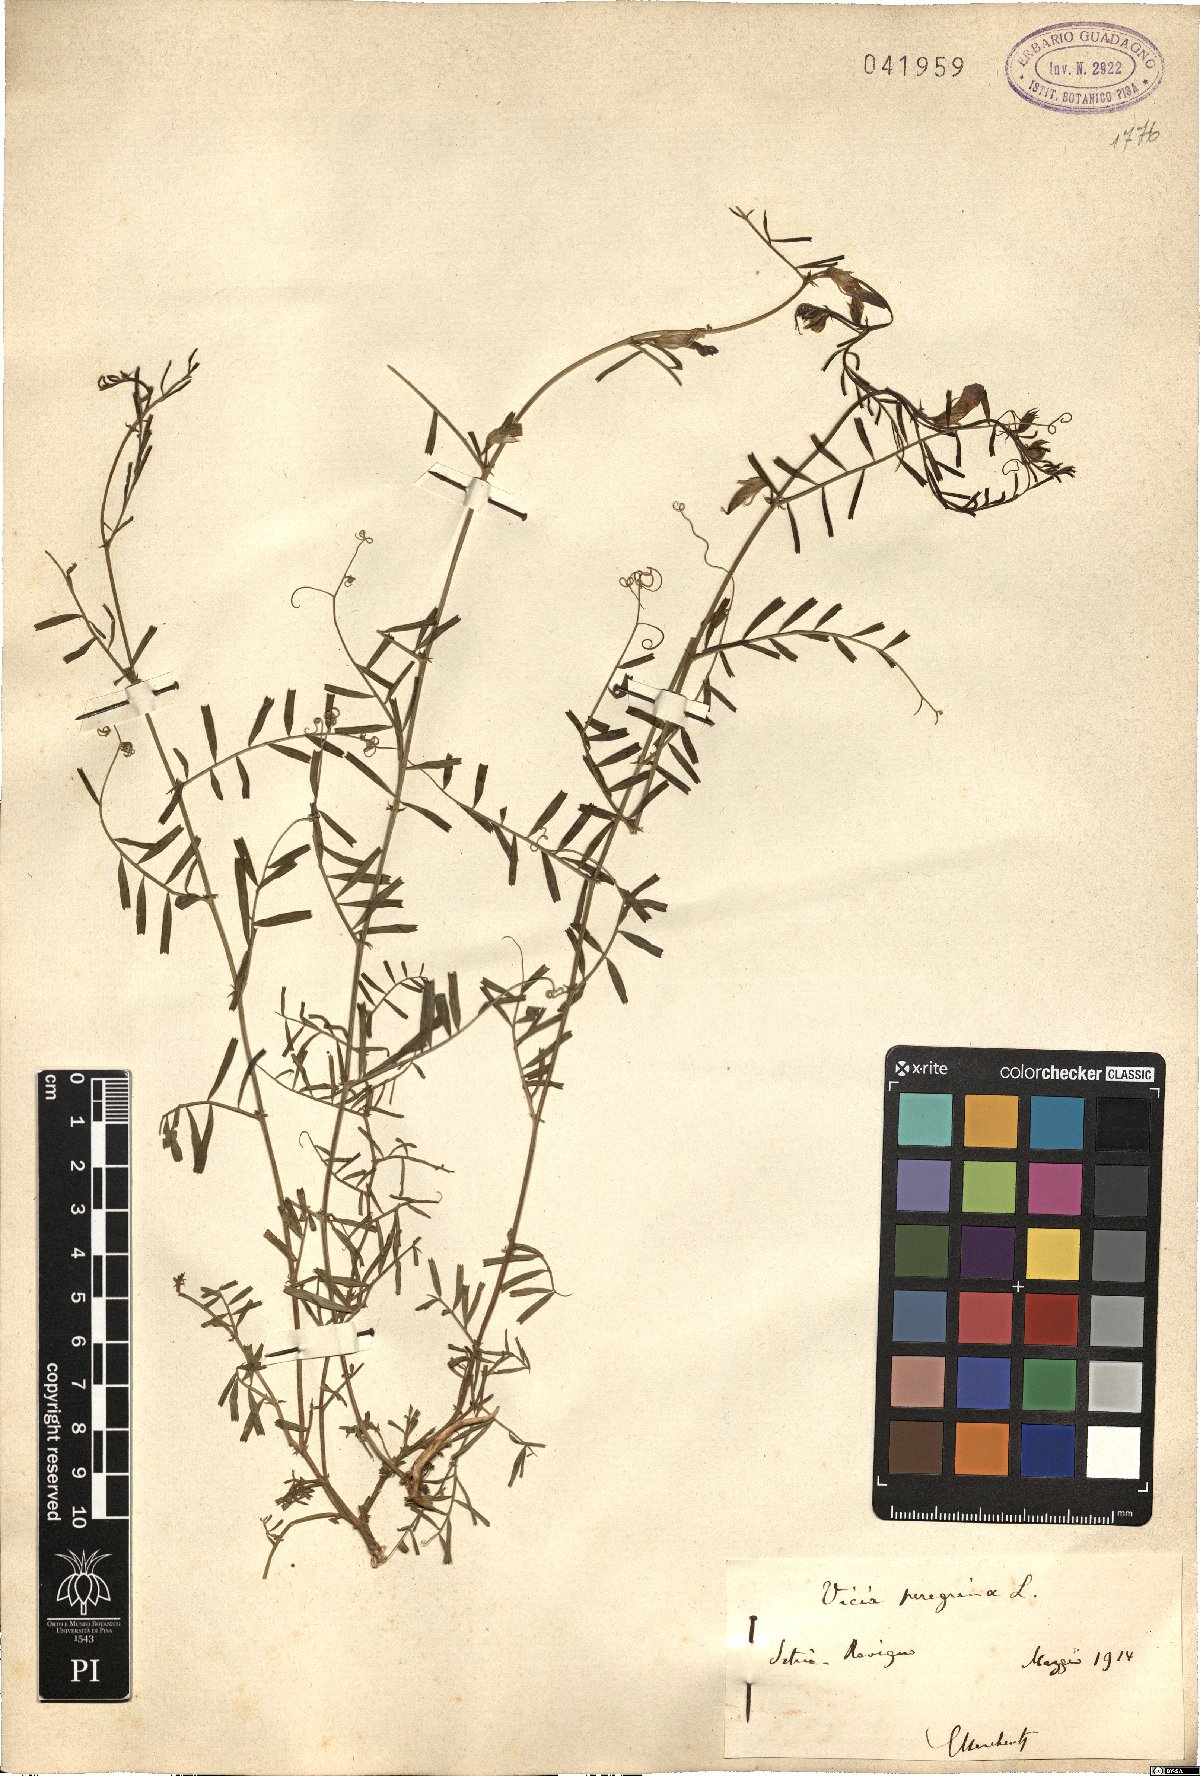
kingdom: Plantae
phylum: Tracheophyta
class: Magnoliopsida
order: Fabales
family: Fabaceae
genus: Vicia
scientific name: Vicia peregrina
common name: Broad-pod vetch
